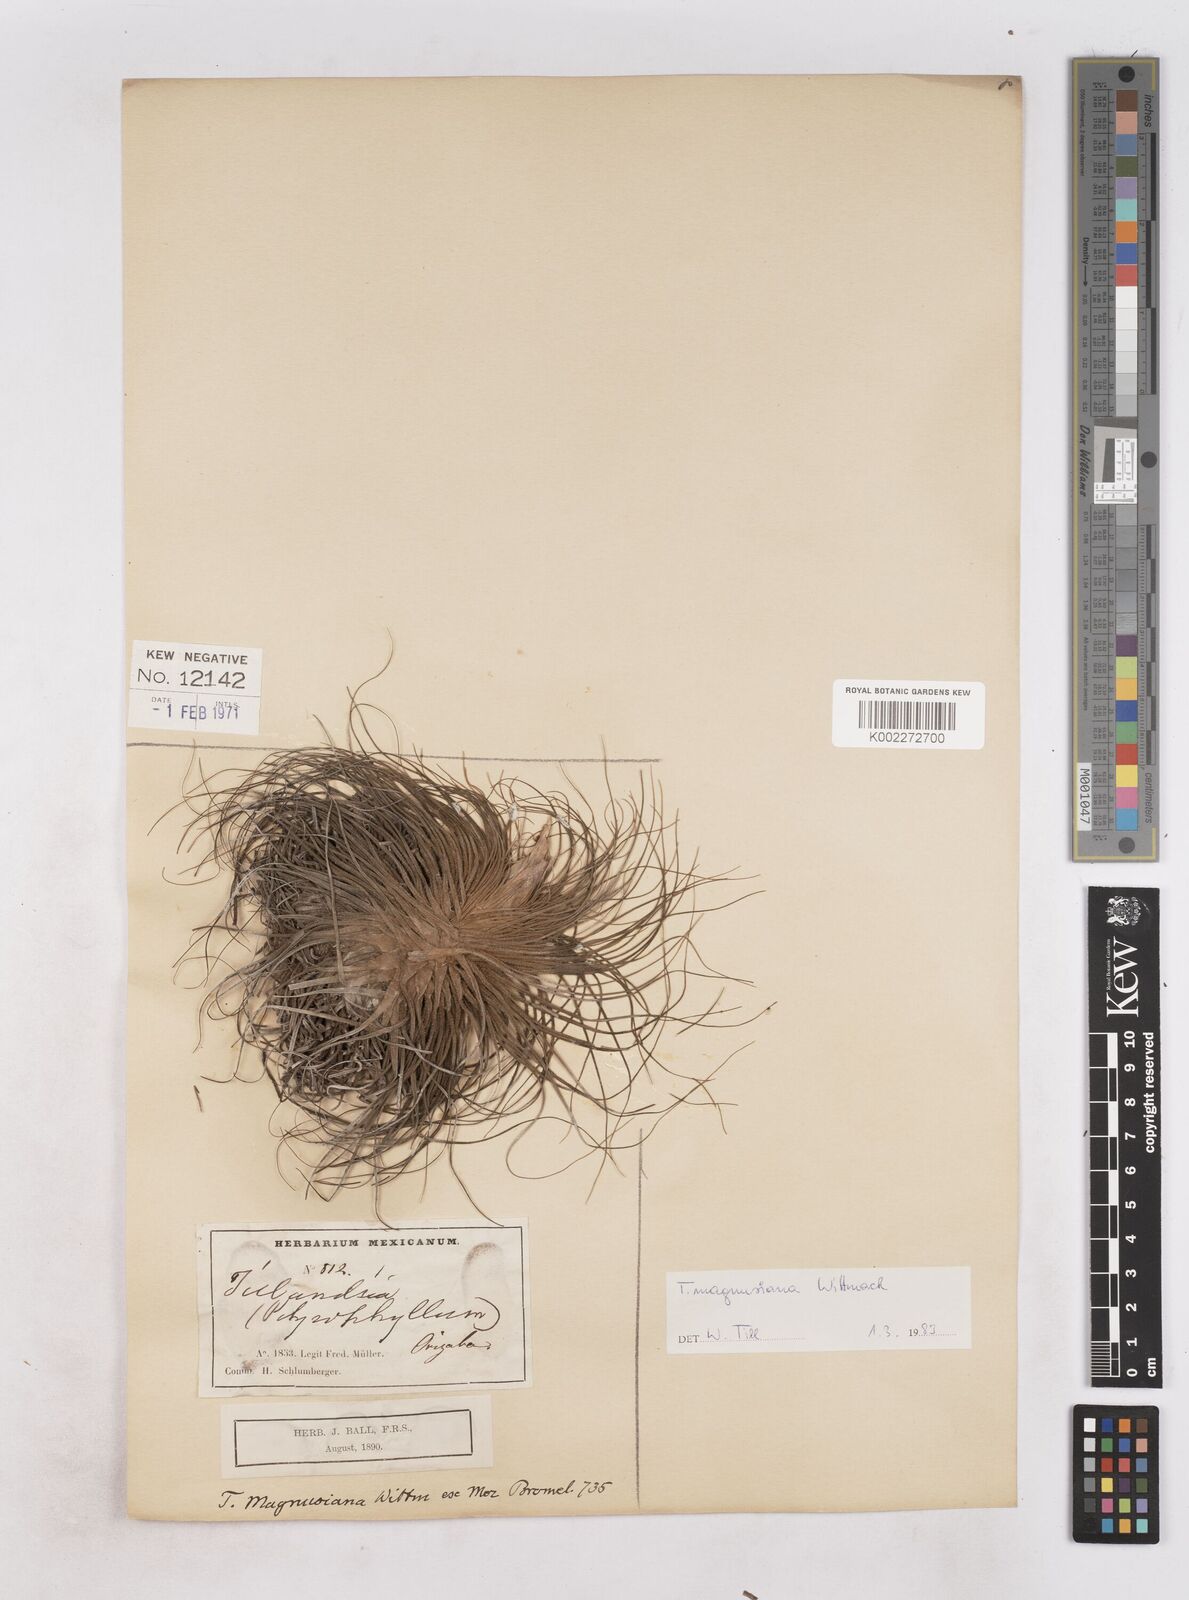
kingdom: Plantae
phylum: Tracheophyta
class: Liliopsida
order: Poales
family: Bromeliaceae
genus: Tillandsia
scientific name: Tillandsia magnusiana
